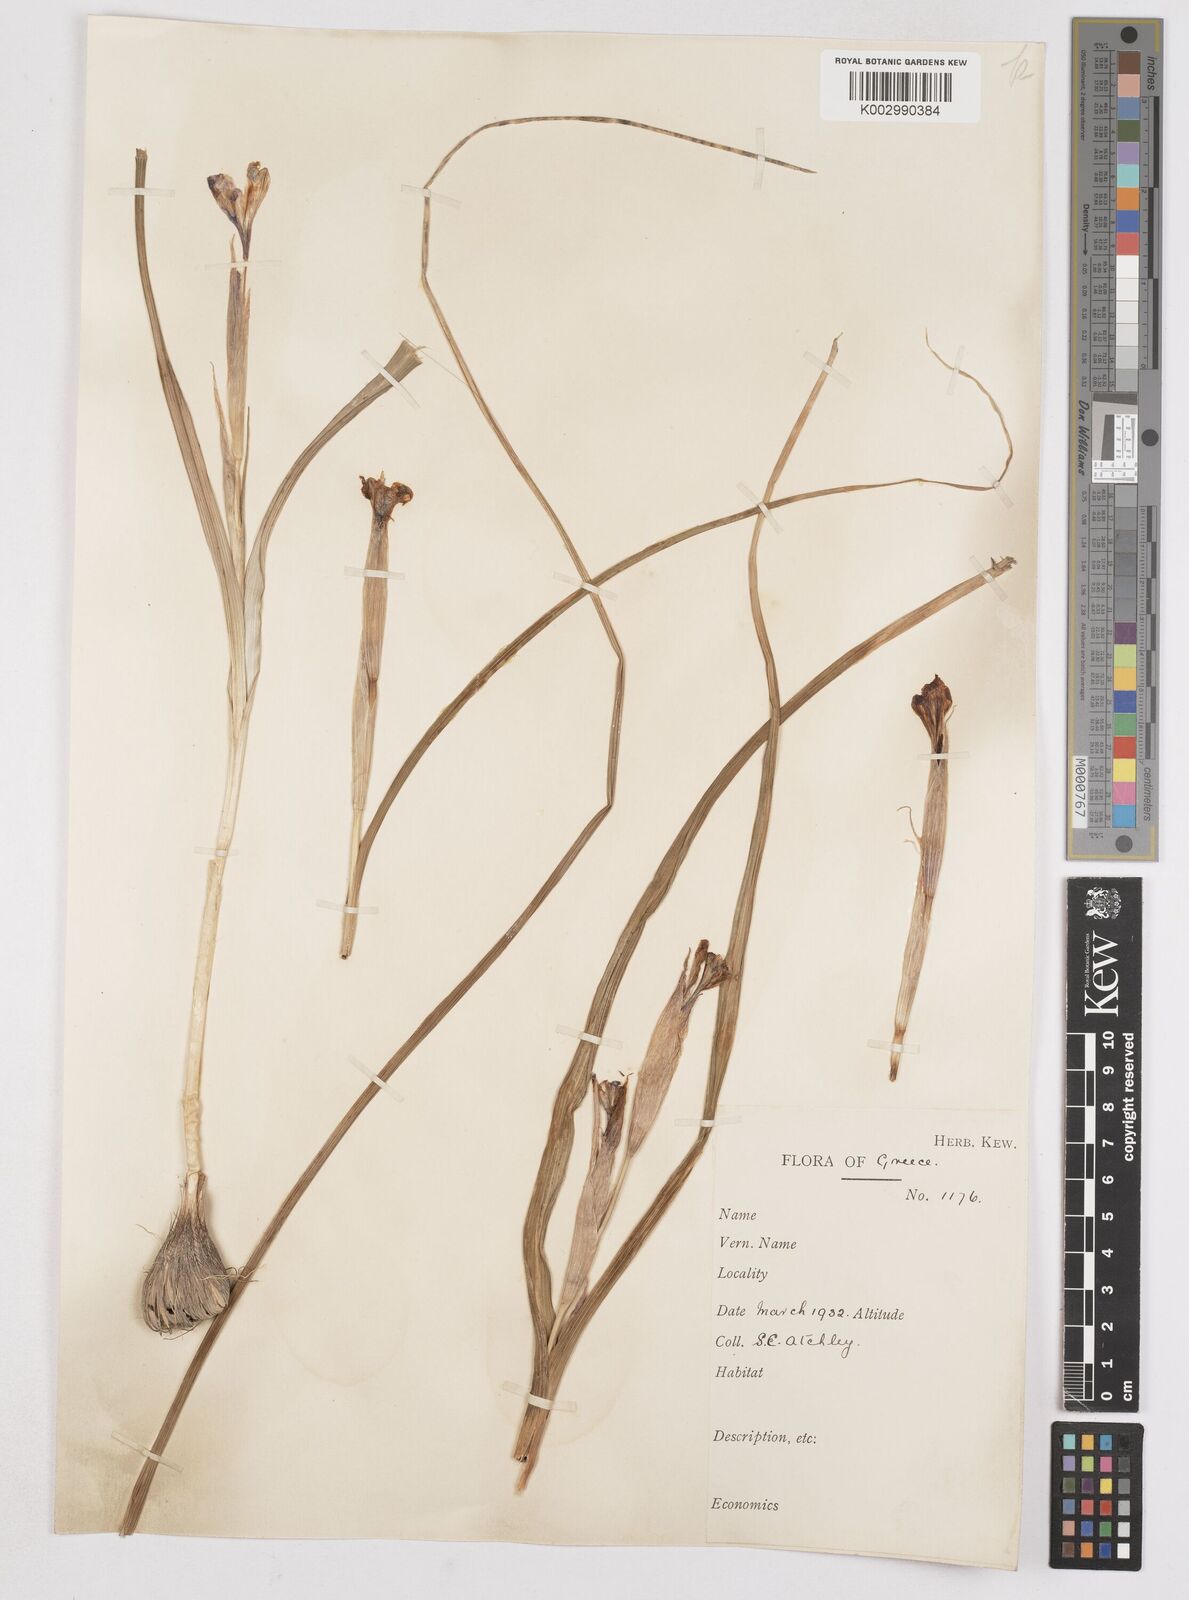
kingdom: Plantae
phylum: Tracheophyta
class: Liliopsida
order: Asparagales
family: Iridaceae
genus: Moraea
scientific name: Moraea sisyrinchium
